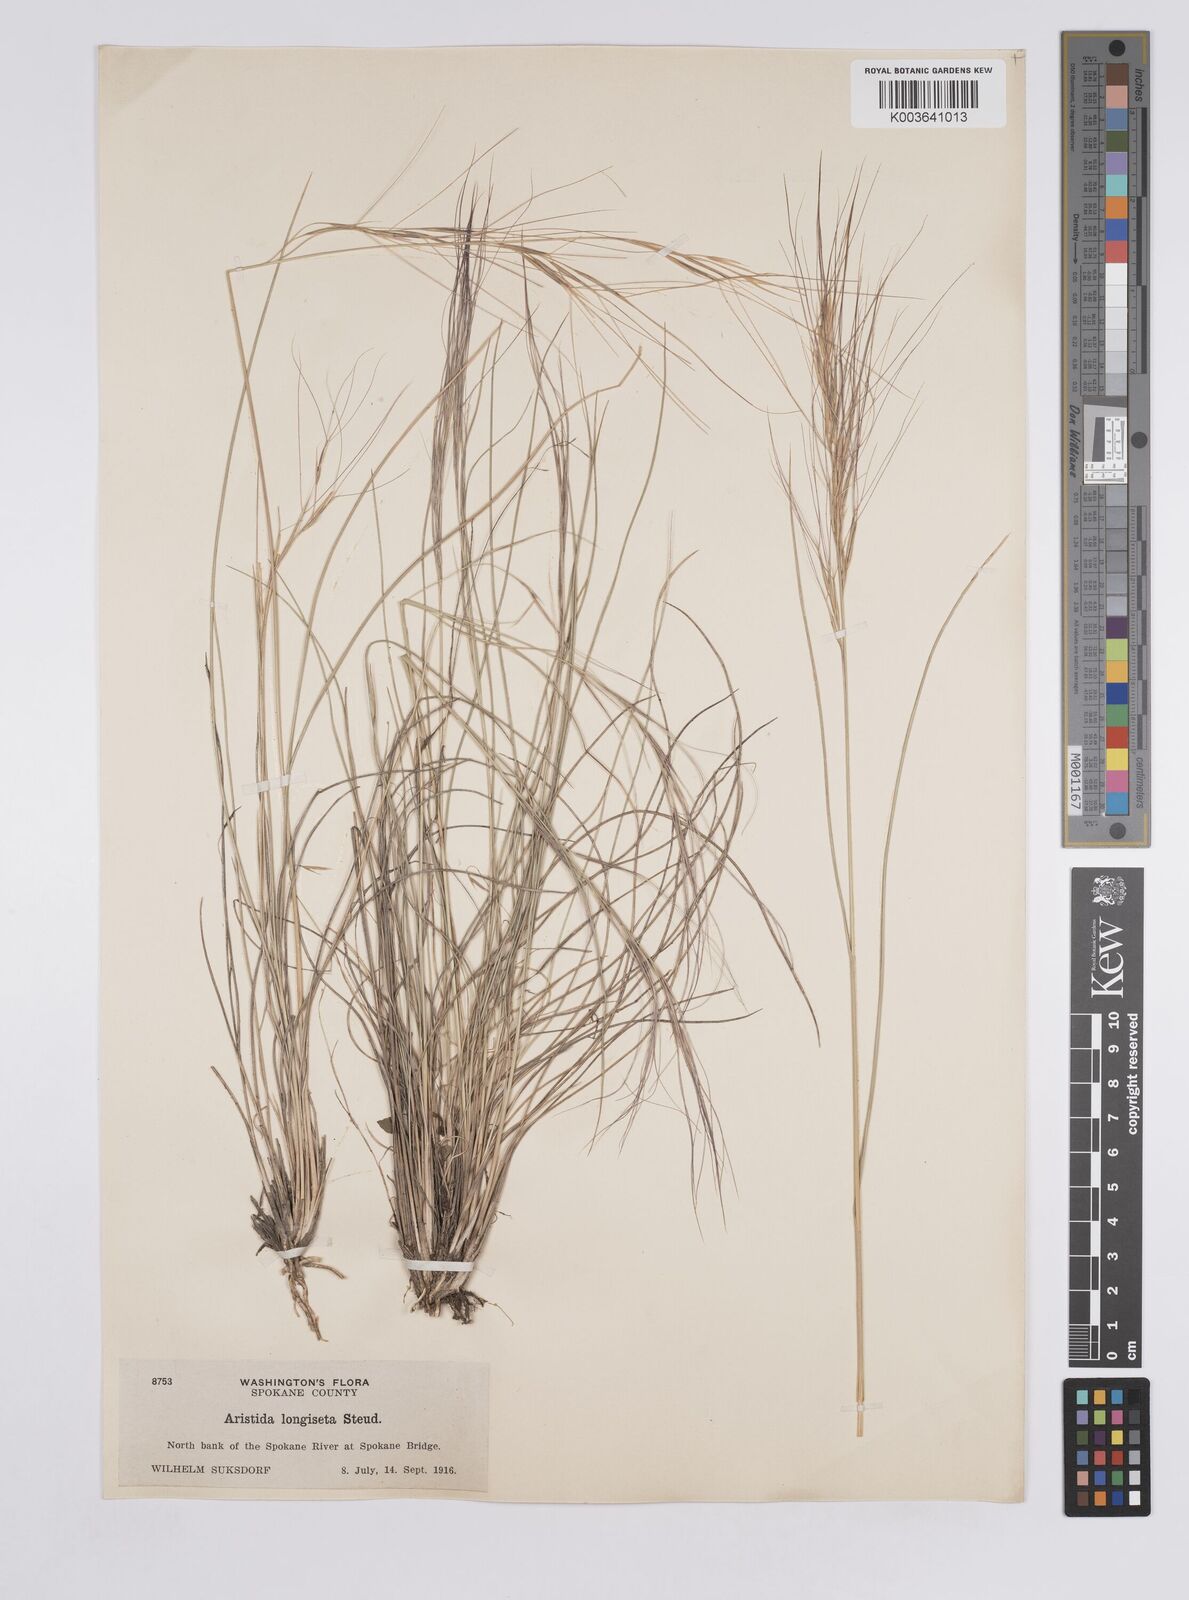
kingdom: Plantae
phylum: Tracheophyta
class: Liliopsida
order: Poales
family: Poaceae
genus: Aristida
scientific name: Aristida purpurea
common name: Purple threeawn
